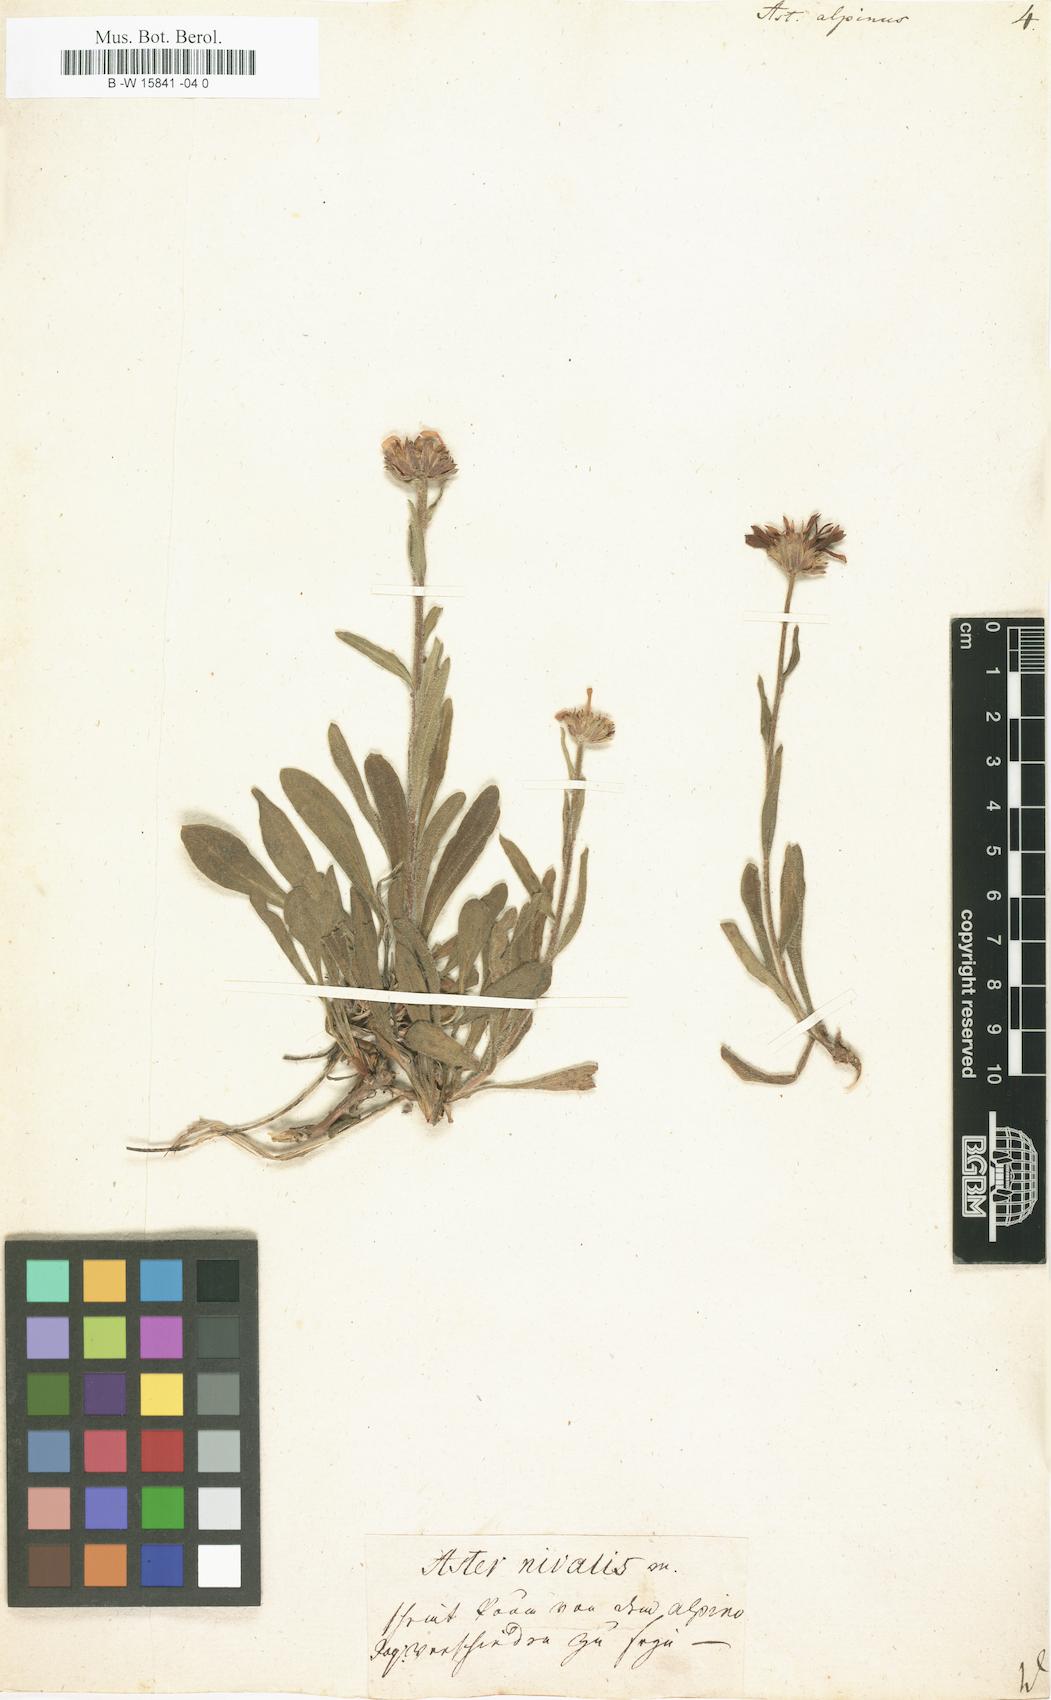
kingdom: Plantae
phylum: Tracheophyta
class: Magnoliopsida
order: Asterales
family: Asteraceae
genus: Aster
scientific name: Aster alpinus
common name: Alpine aster
